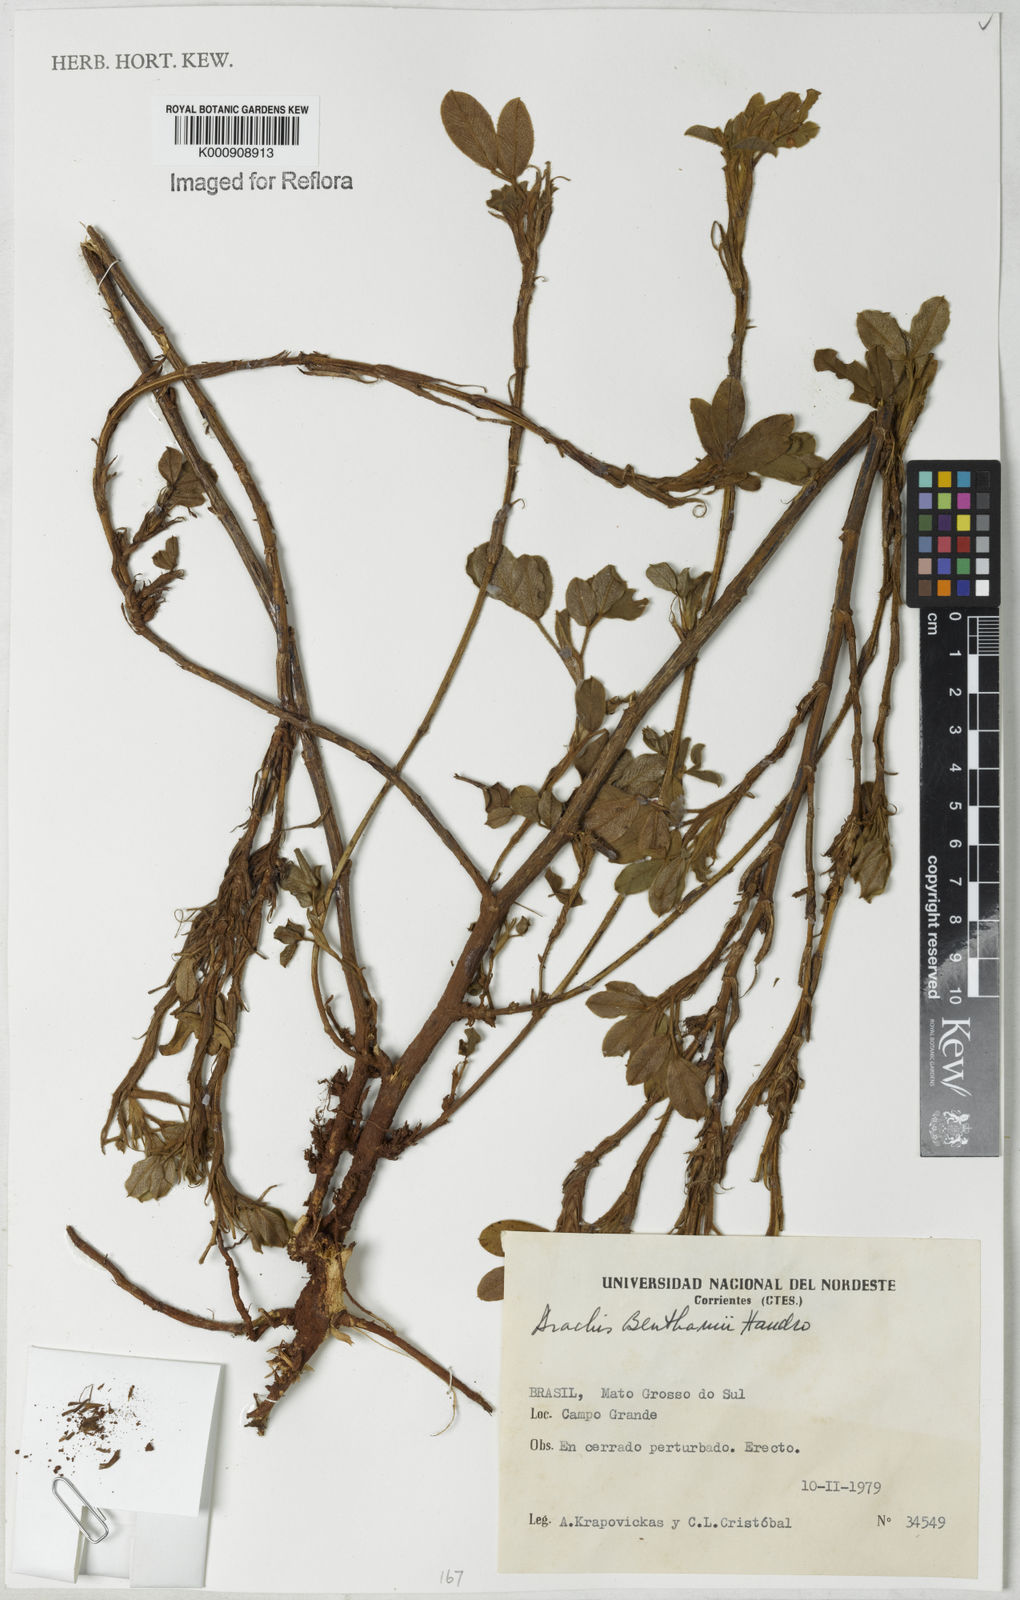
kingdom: Plantae
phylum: Tracheophyta
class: Magnoliopsida
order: Fabales
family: Fabaceae
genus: Arachis
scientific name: Arachis benthamii
